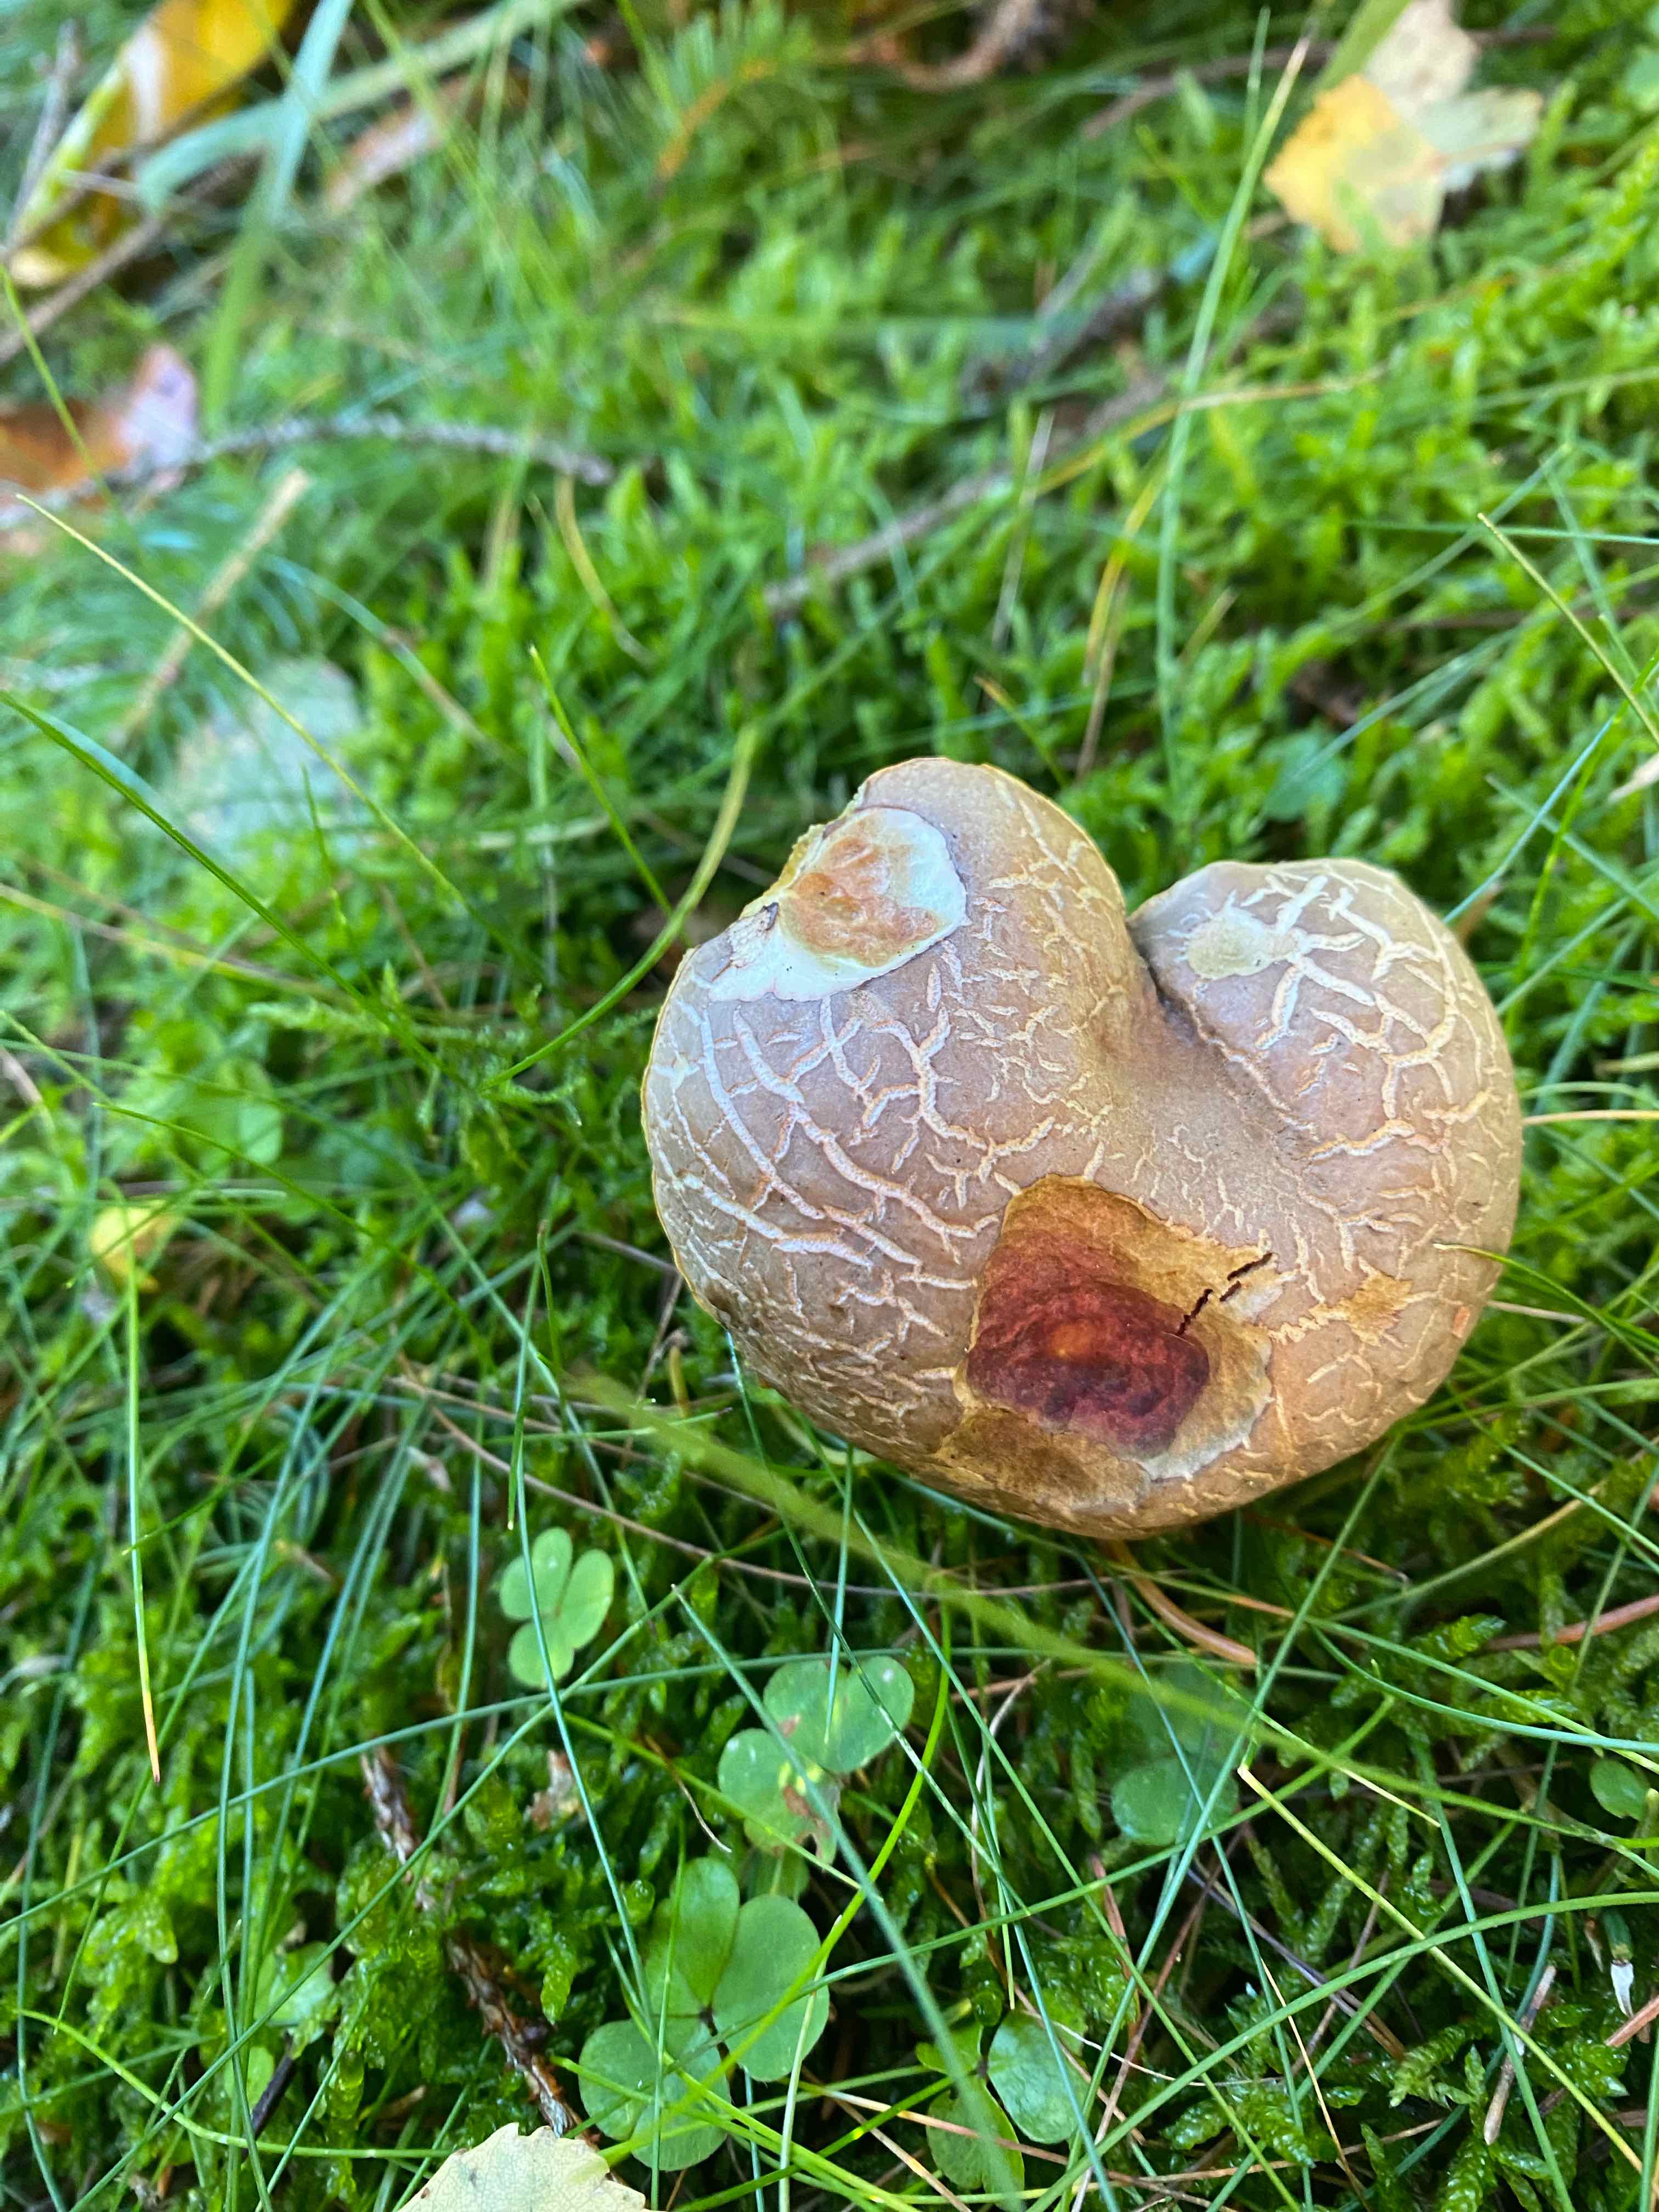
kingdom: Fungi
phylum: Basidiomycota
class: Agaricomycetes
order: Boletales
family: Boletaceae
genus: Xerocomellus
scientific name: Xerocomellus chrysenteron
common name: rødsprukken rørhat
